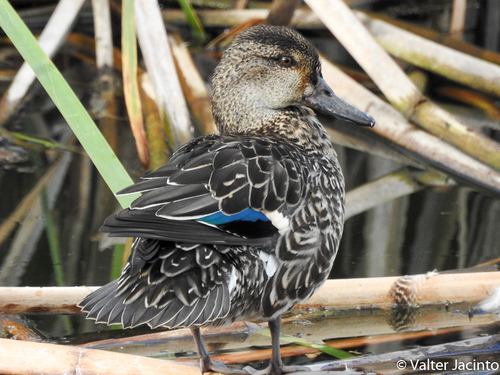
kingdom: Animalia
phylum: Chordata
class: Aves
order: Anseriformes
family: Anatidae
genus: Anas
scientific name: Anas crecca
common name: Eurasian teal
